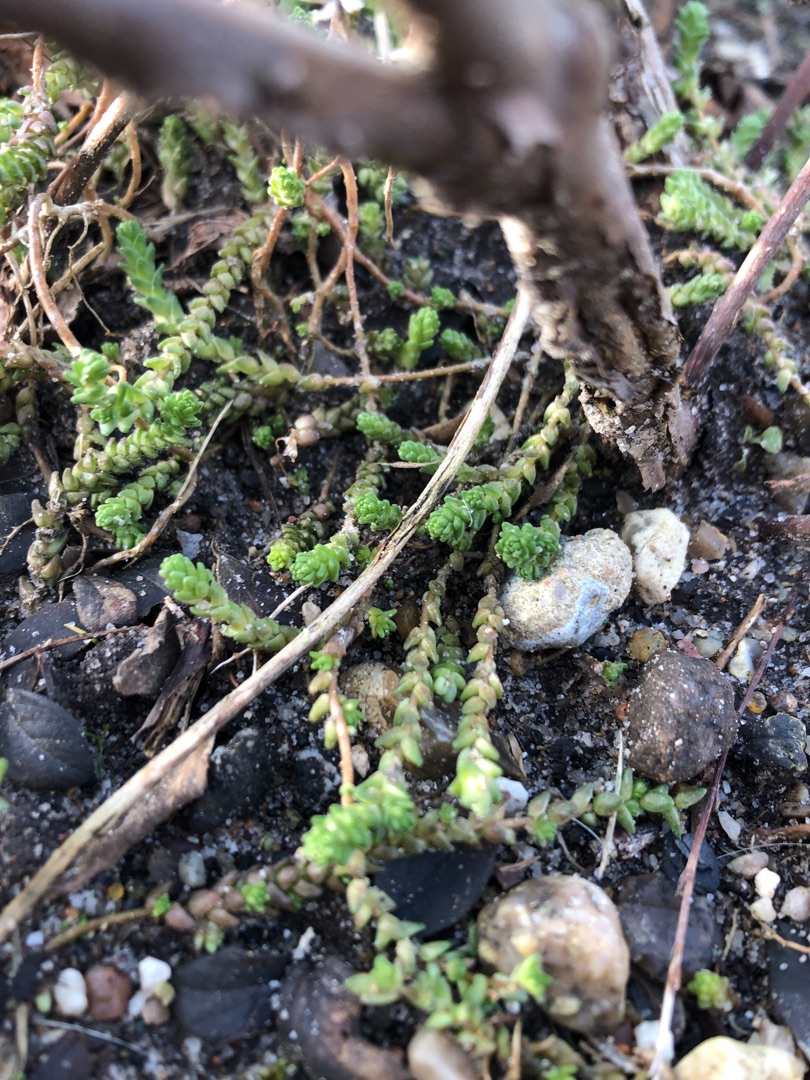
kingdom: Plantae
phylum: Tracheophyta
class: Magnoliopsida
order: Saxifragales
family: Crassulaceae
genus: Sedum
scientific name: Sedum acre
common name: Bidende stenurt
